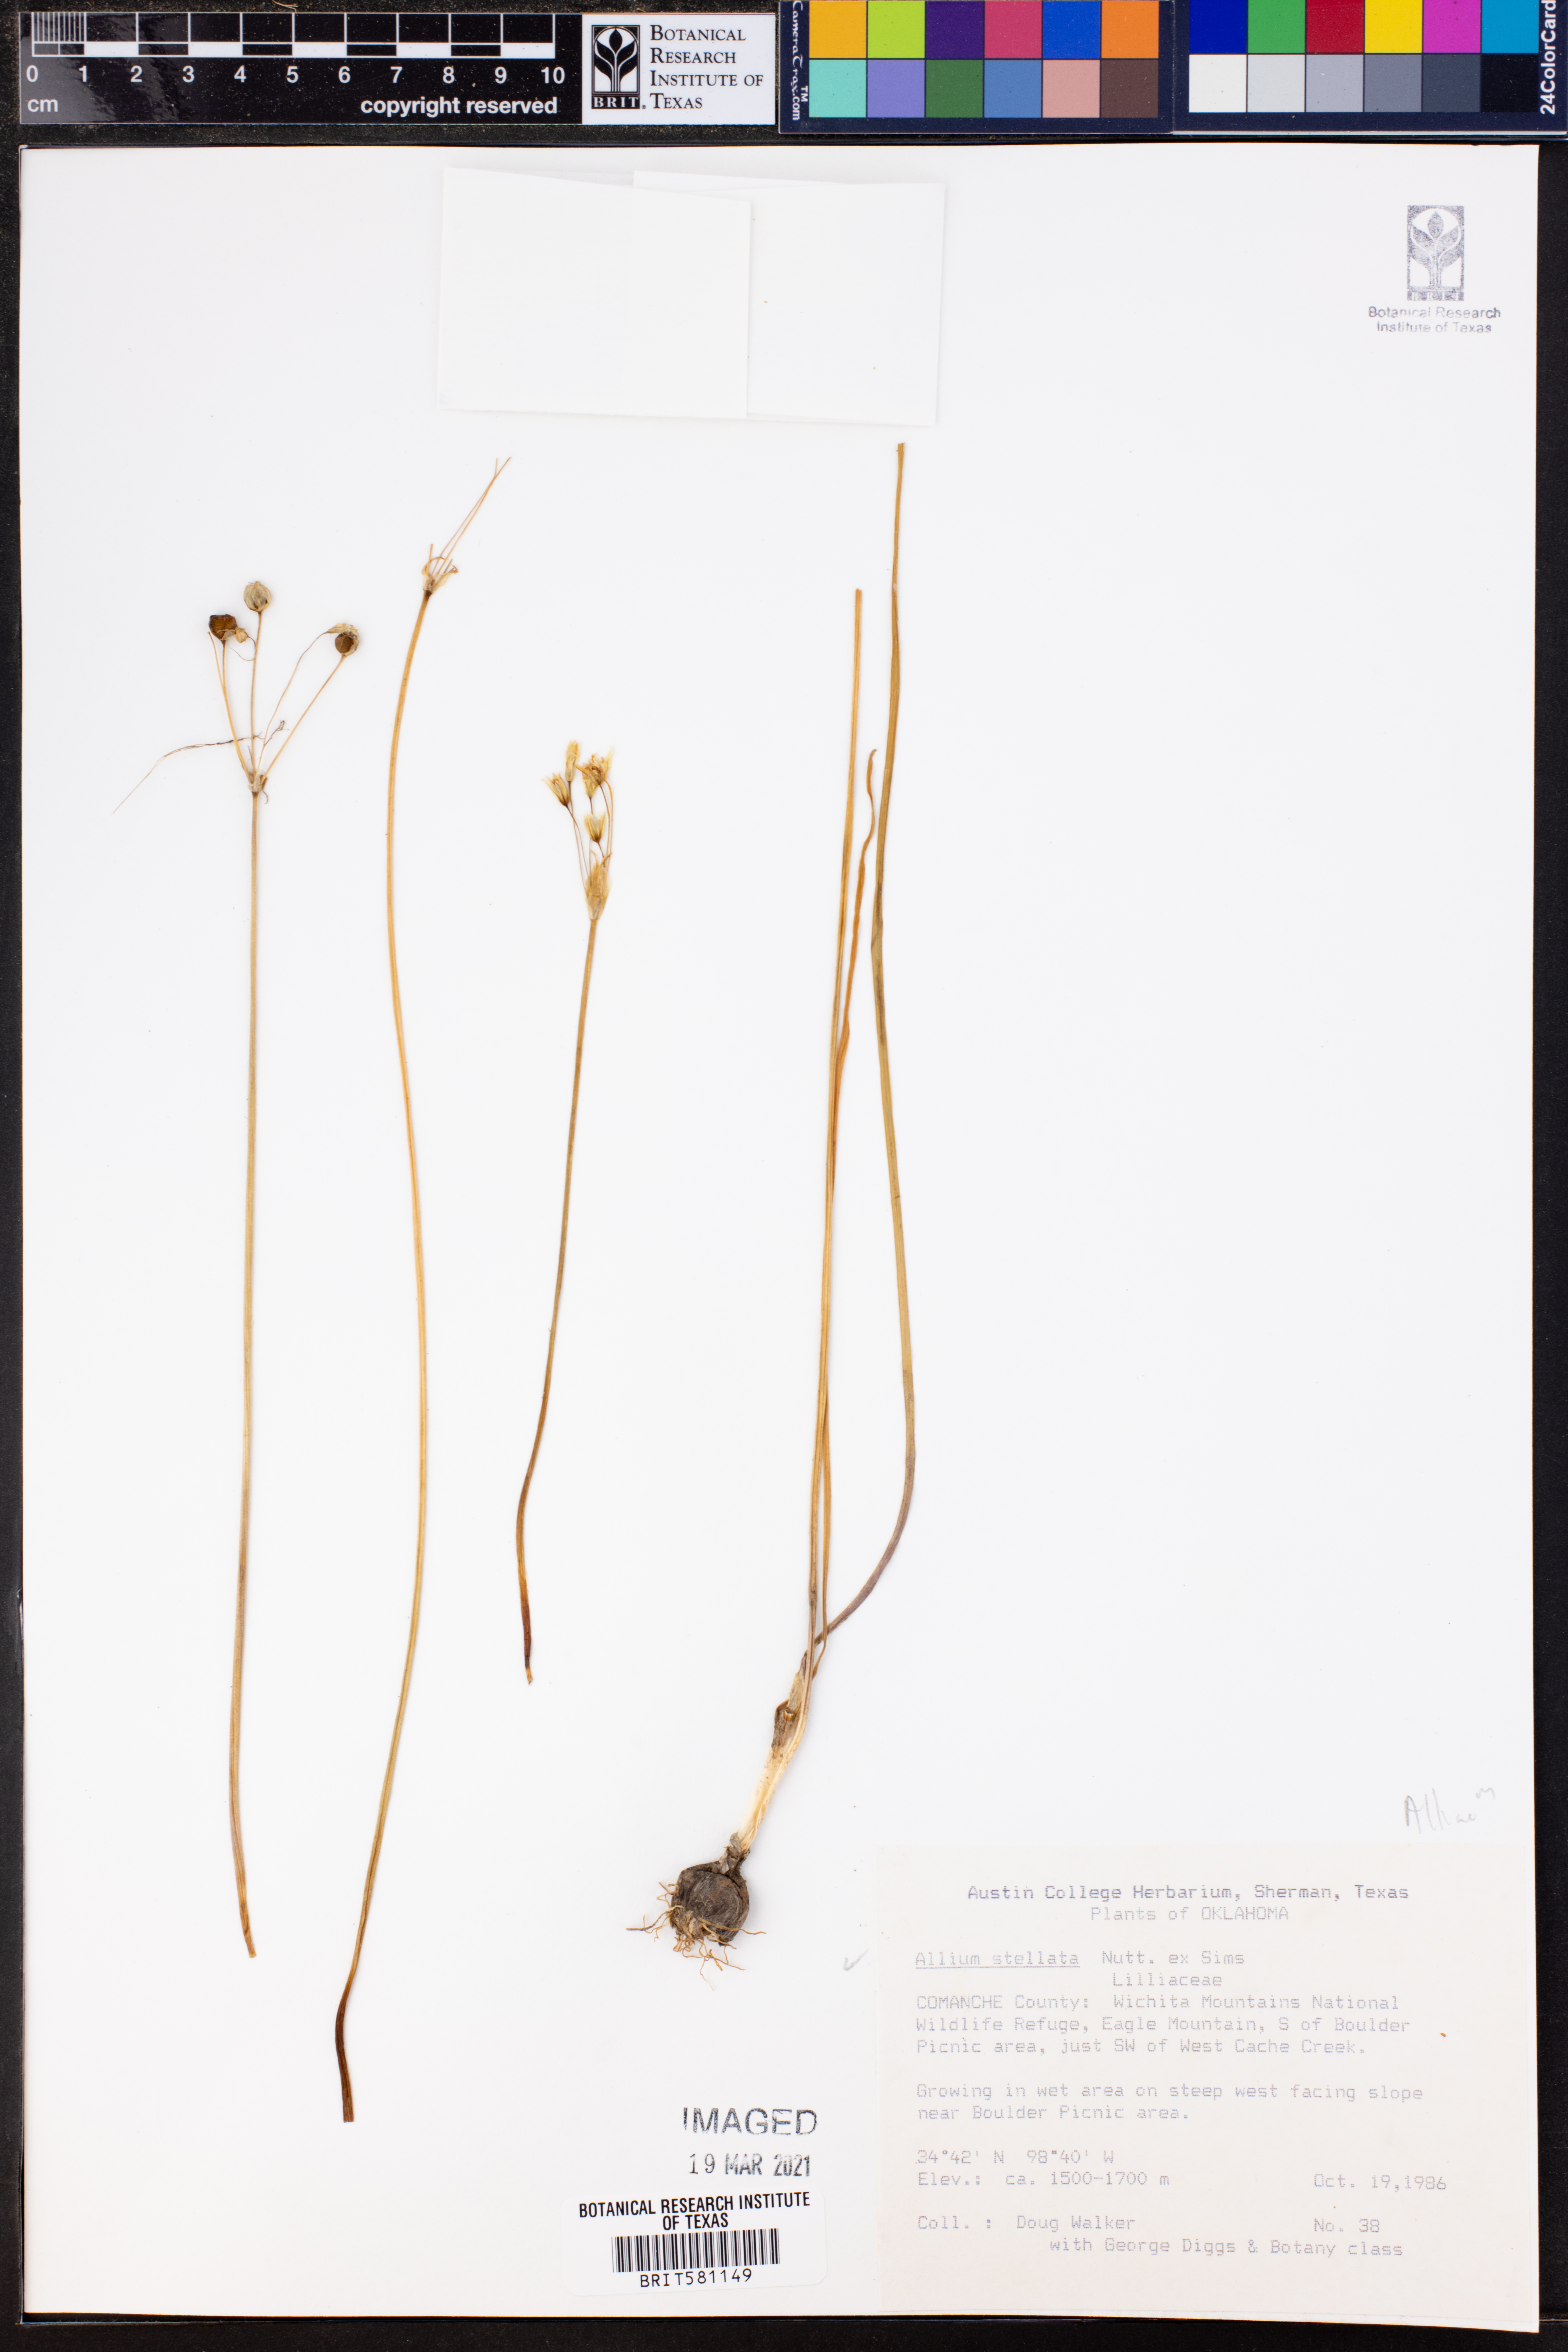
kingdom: Plantae
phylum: Tracheophyta
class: Liliopsida
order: Asparagales
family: Amaryllidaceae
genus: Allium
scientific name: Allium stellatum
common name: Autumn onion
